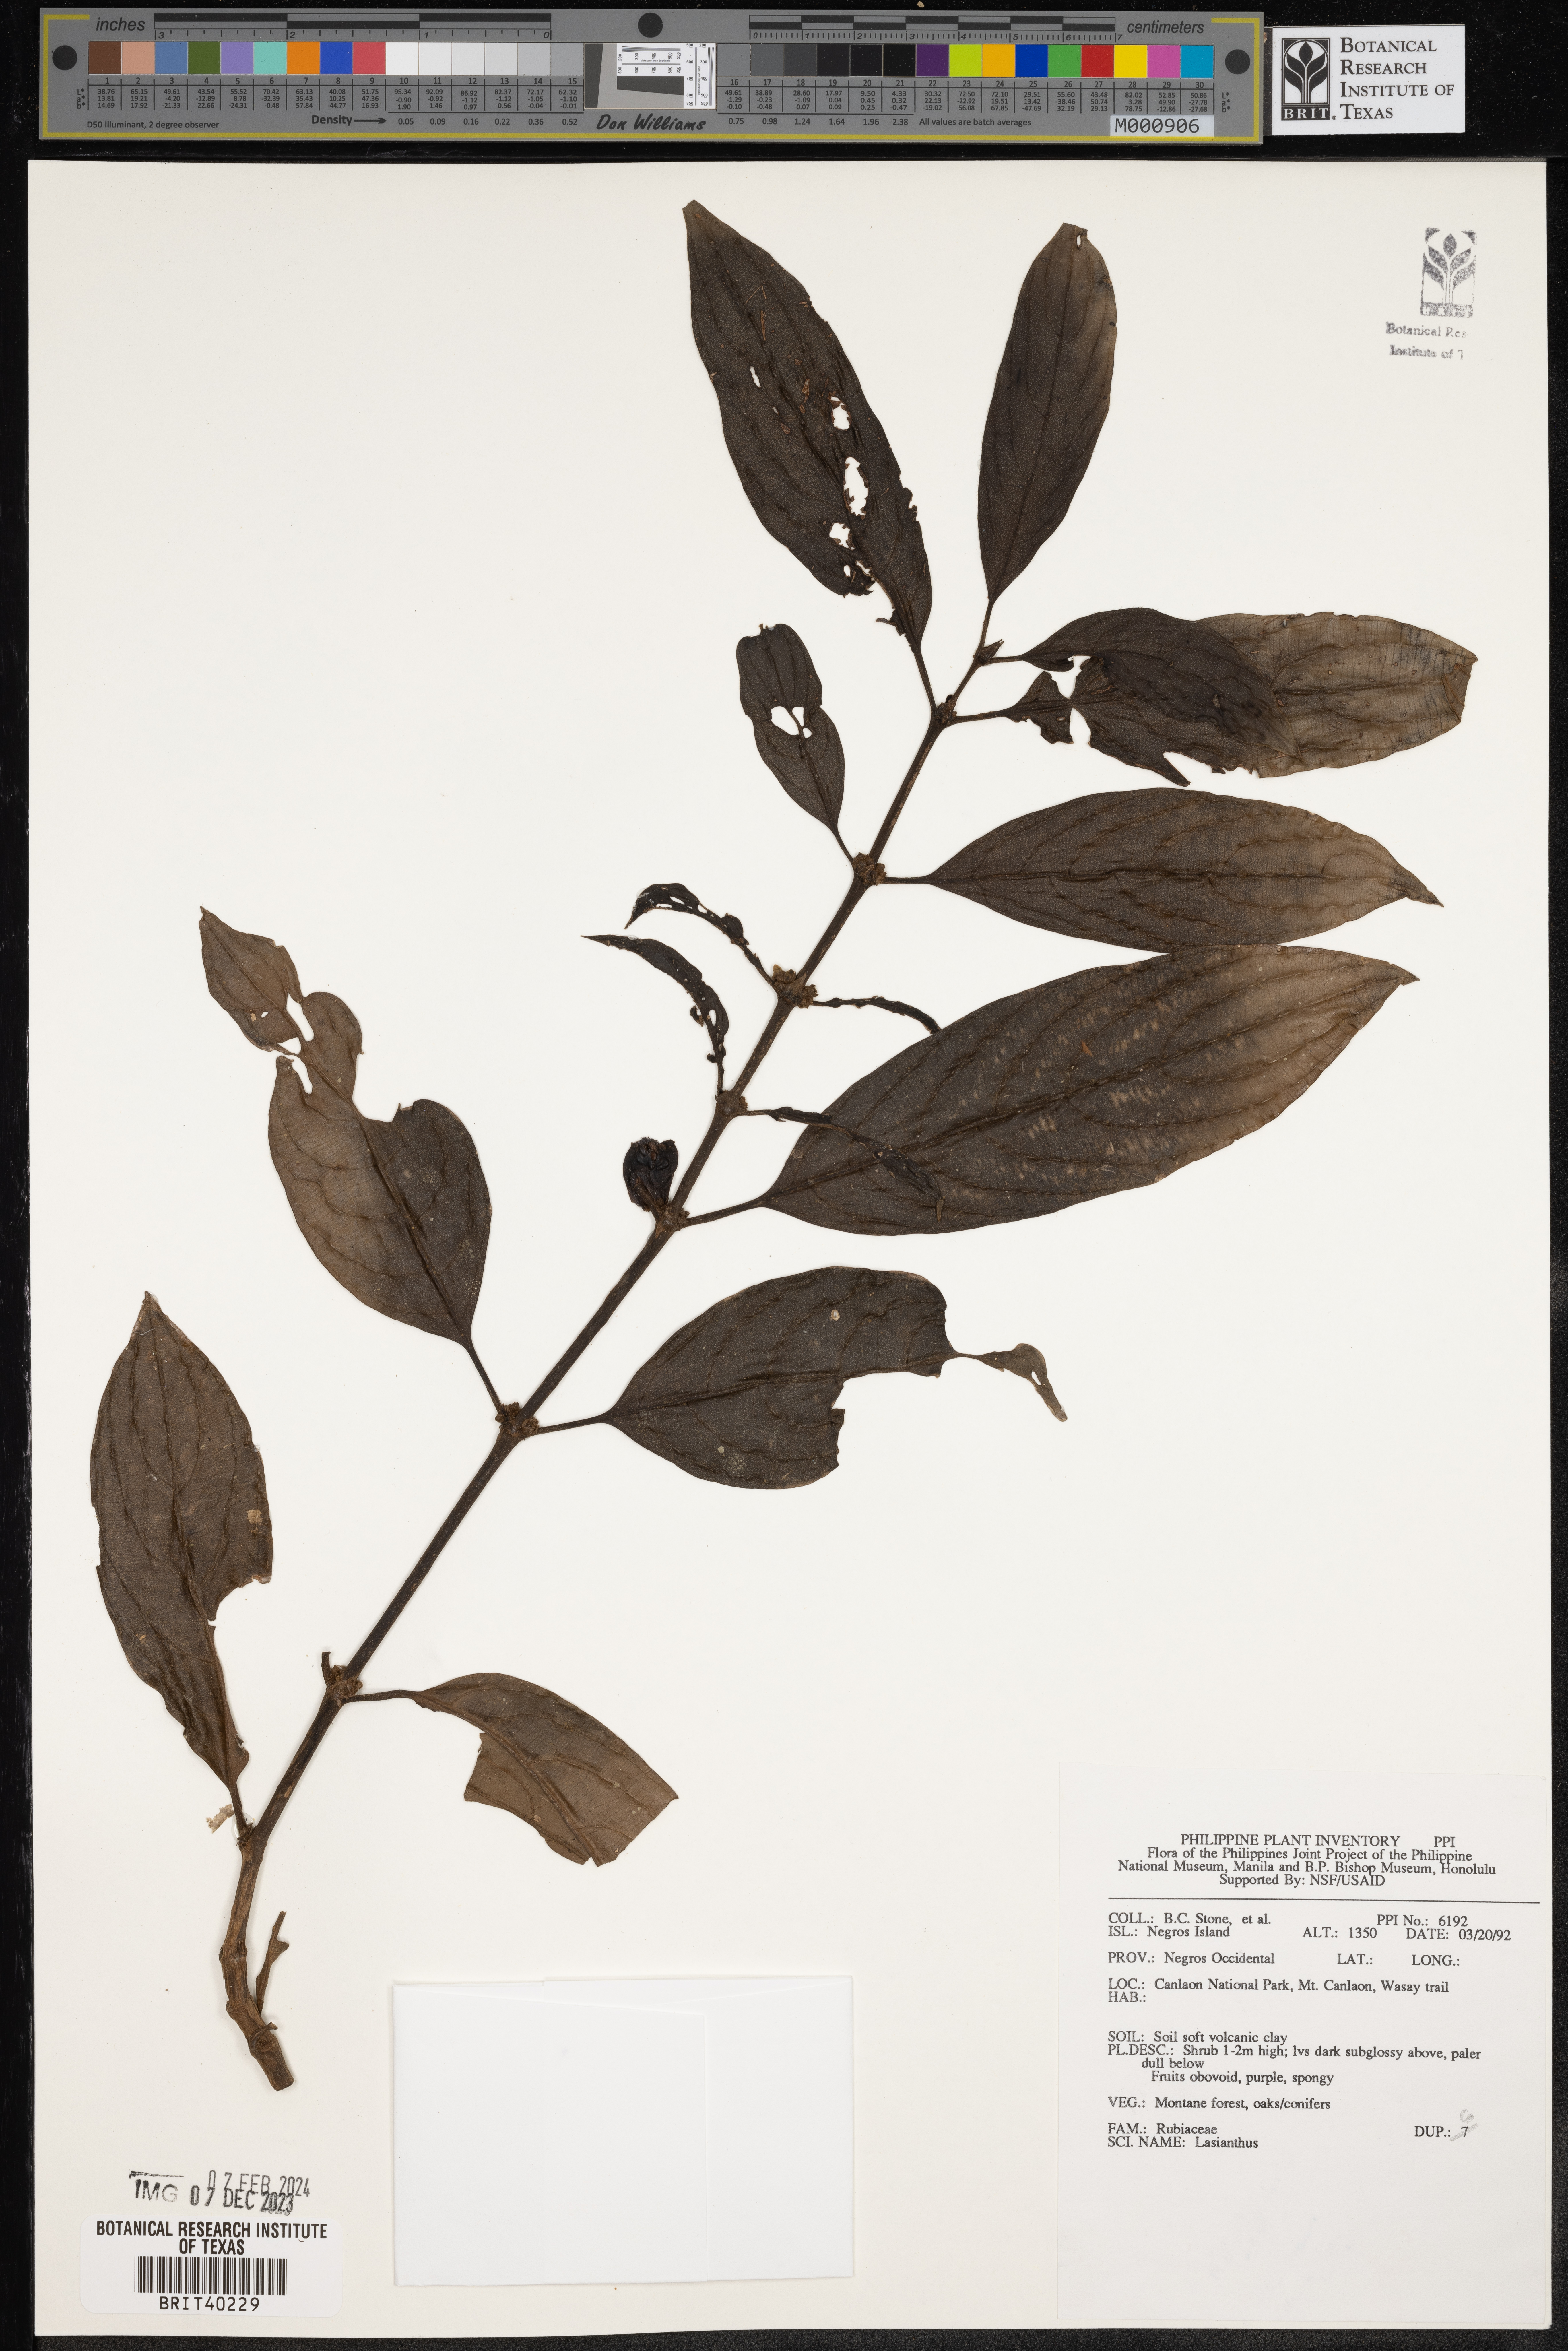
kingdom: Plantae
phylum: Tracheophyta
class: Magnoliopsida
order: Gentianales
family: Rubiaceae
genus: Lasianthus
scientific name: Lasianthus
